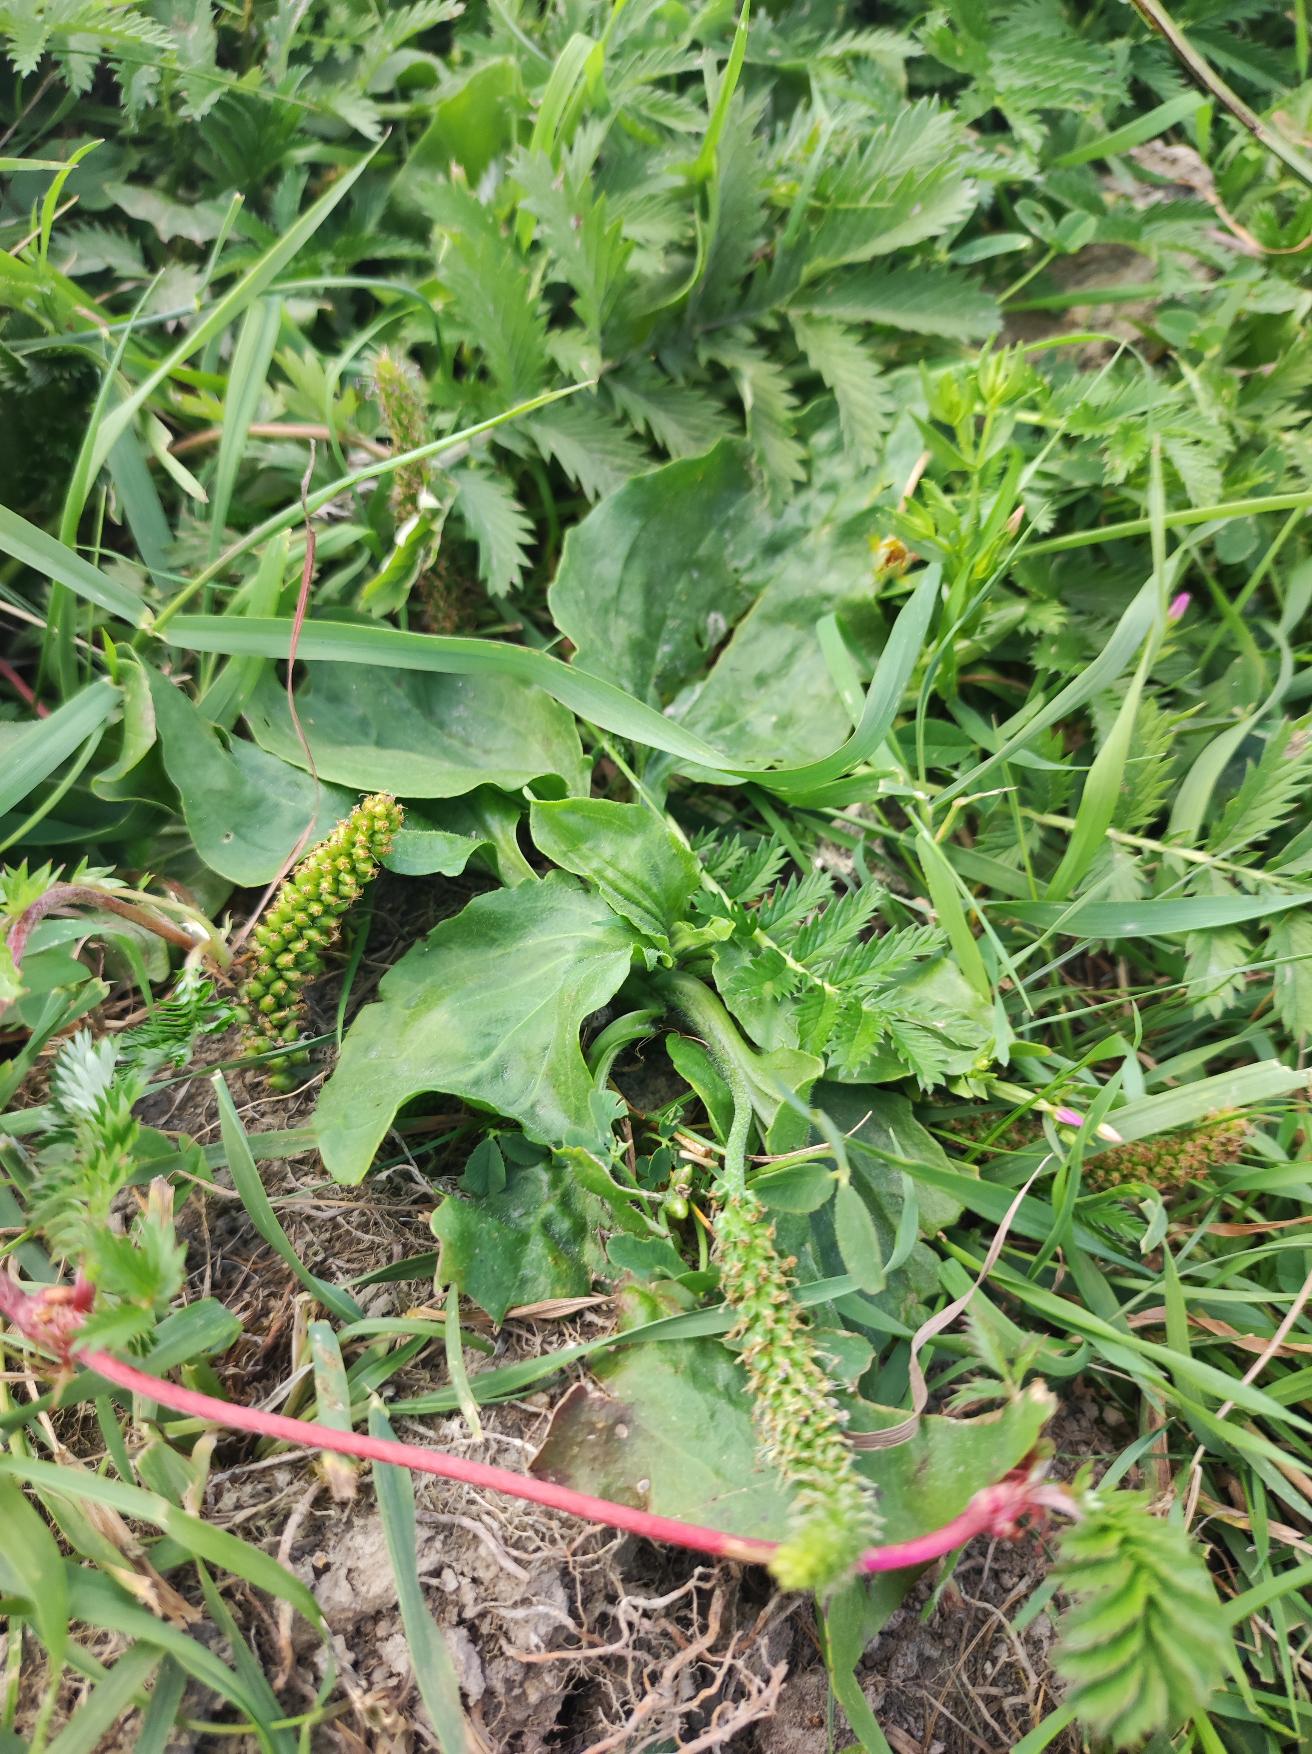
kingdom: Plantae
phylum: Tracheophyta
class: Magnoliopsida
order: Lamiales
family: Plantaginaceae
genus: Plantago
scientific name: Plantago major
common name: Glat vejbred
